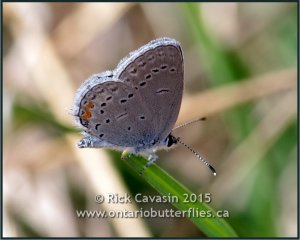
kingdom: Animalia
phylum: Arthropoda
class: Insecta
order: Lepidoptera
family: Lycaenidae
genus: Elkalyce
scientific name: Elkalyce comyntas
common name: Eastern Tailed-Blue
